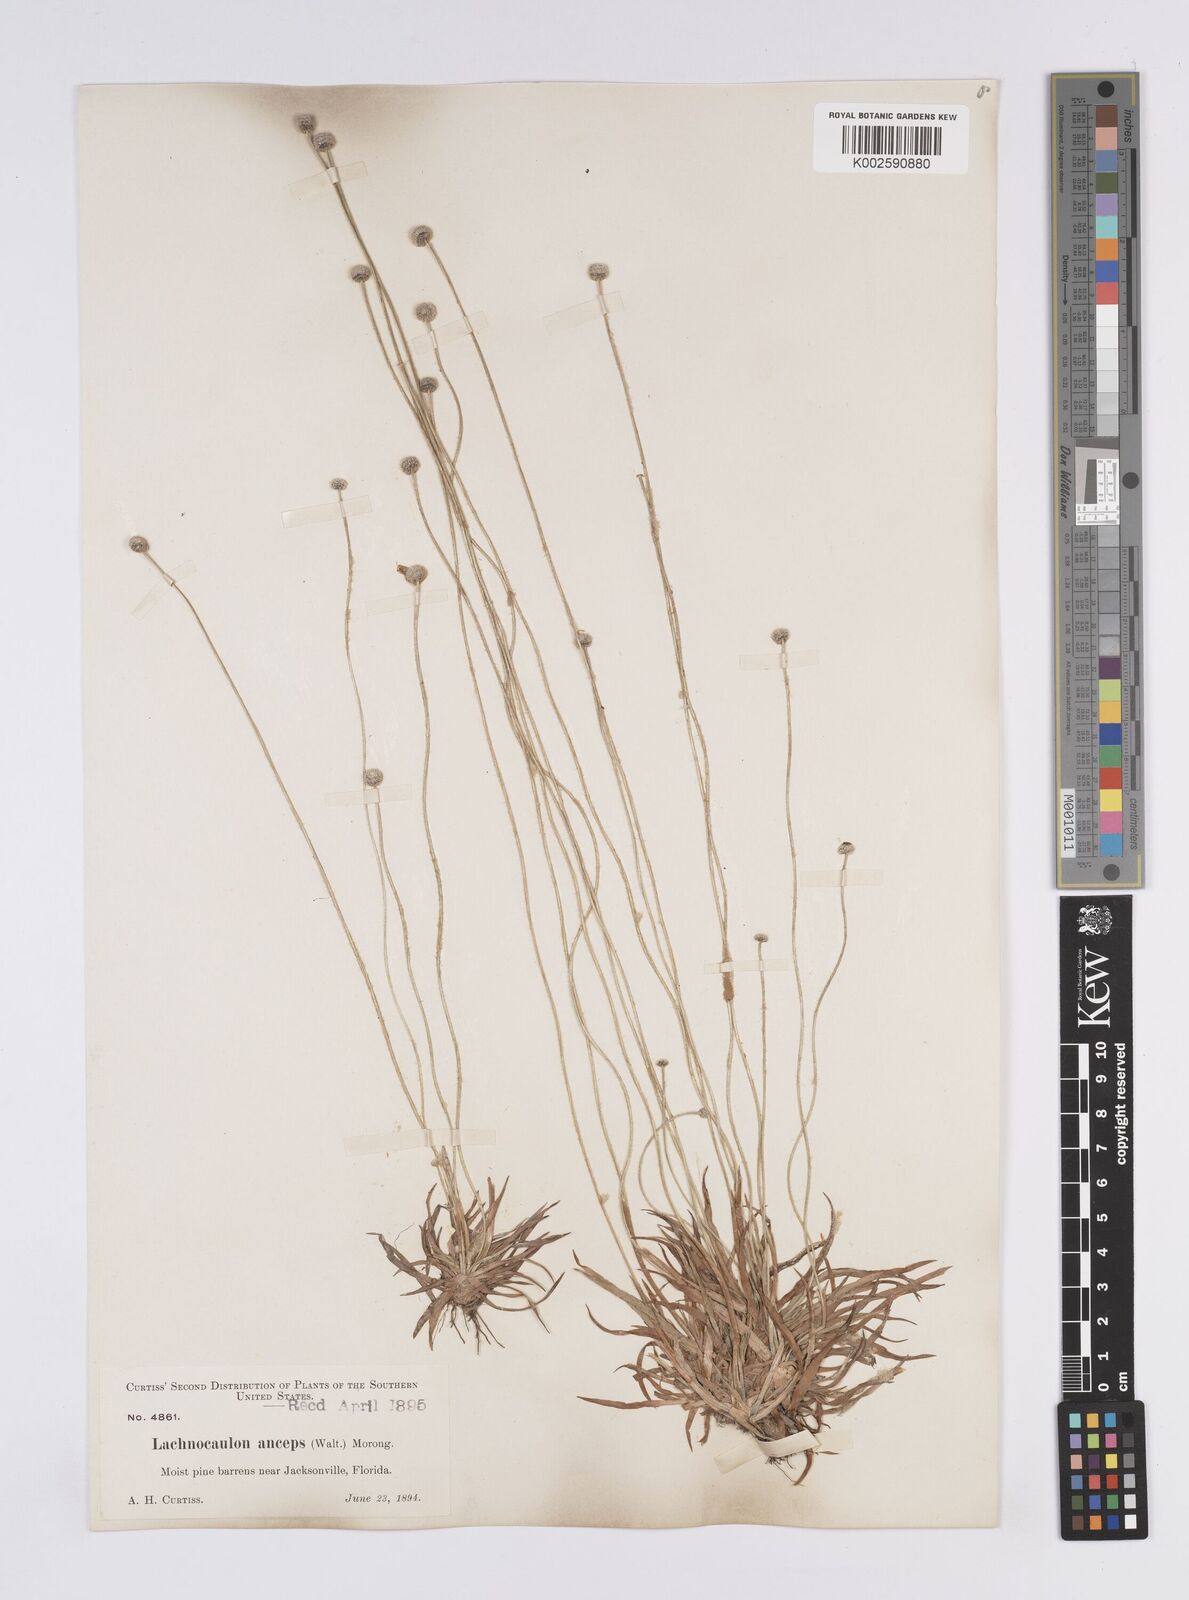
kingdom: Plantae
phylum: Tracheophyta
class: Liliopsida
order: Poales
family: Eriocaulaceae
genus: Paepalanthus
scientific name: Paepalanthus anceps
